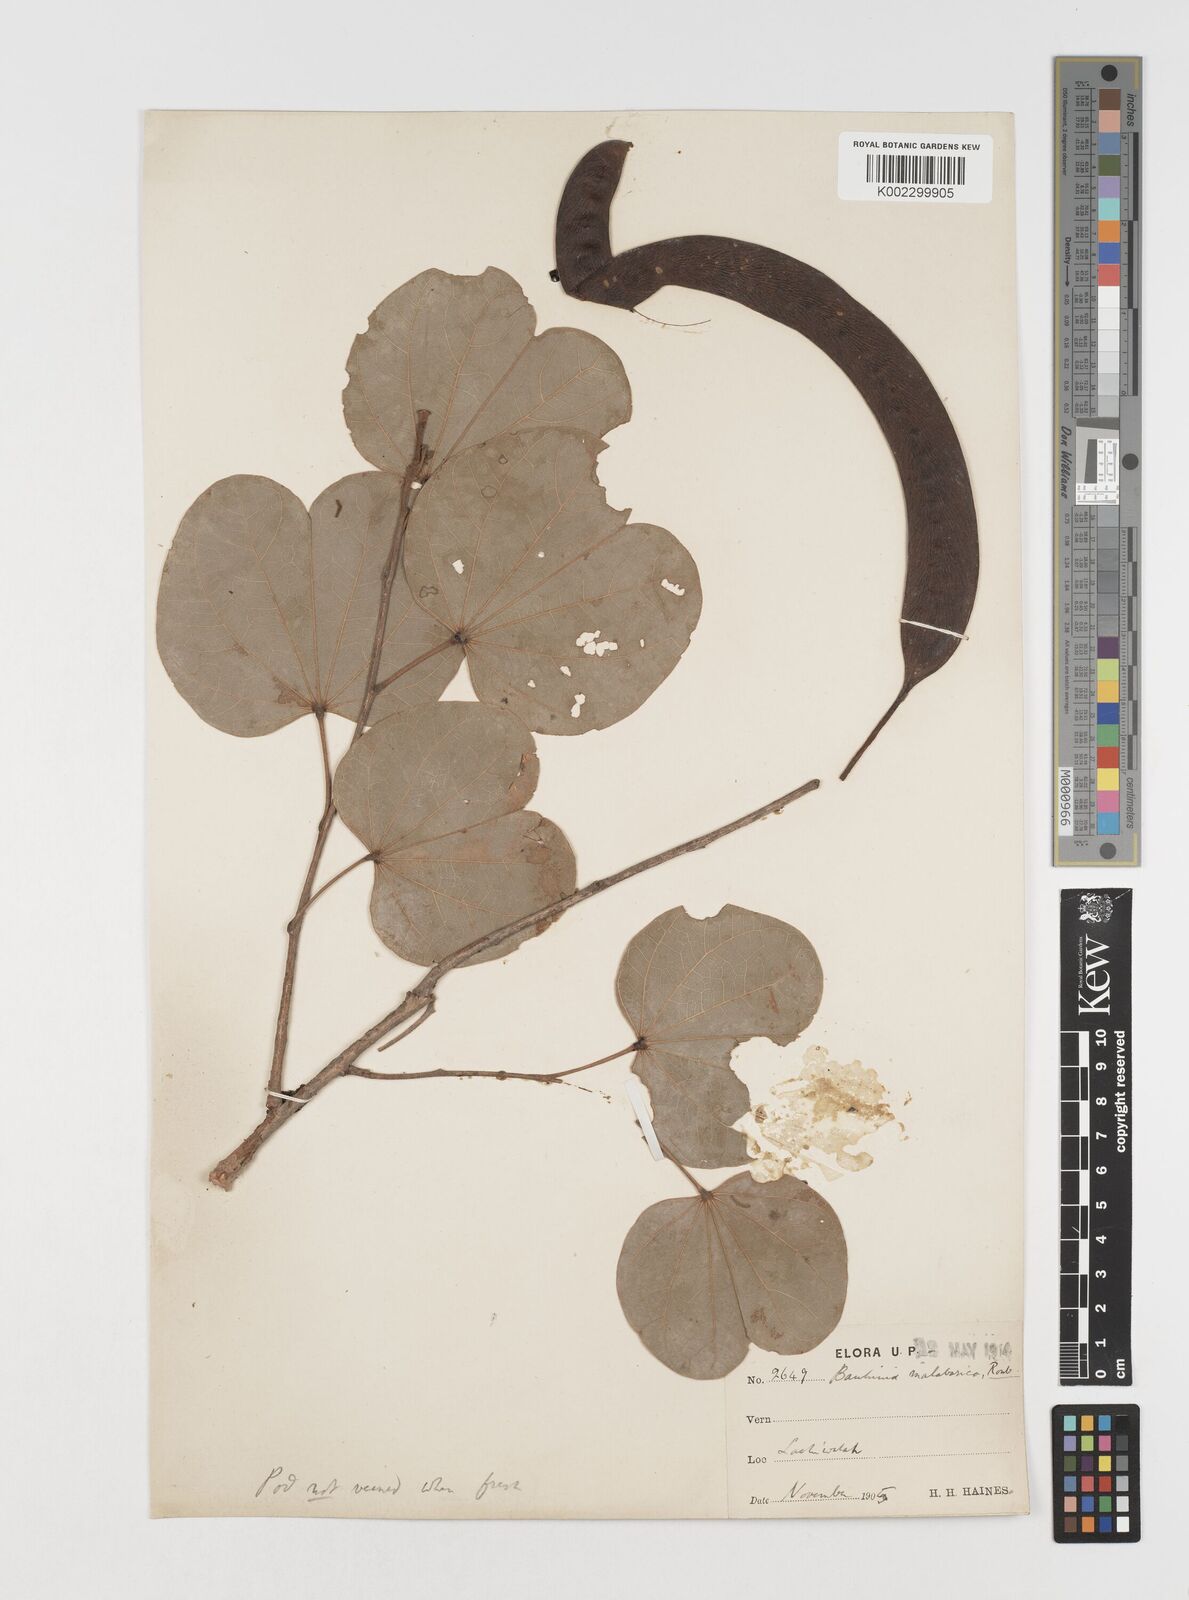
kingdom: Plantae
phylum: Tracheophyta
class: Magnoliopsida
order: Fabales
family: Fabaceae
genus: Piliostigma
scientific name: Piliostigma malabaricum
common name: Malabar bauhinia
